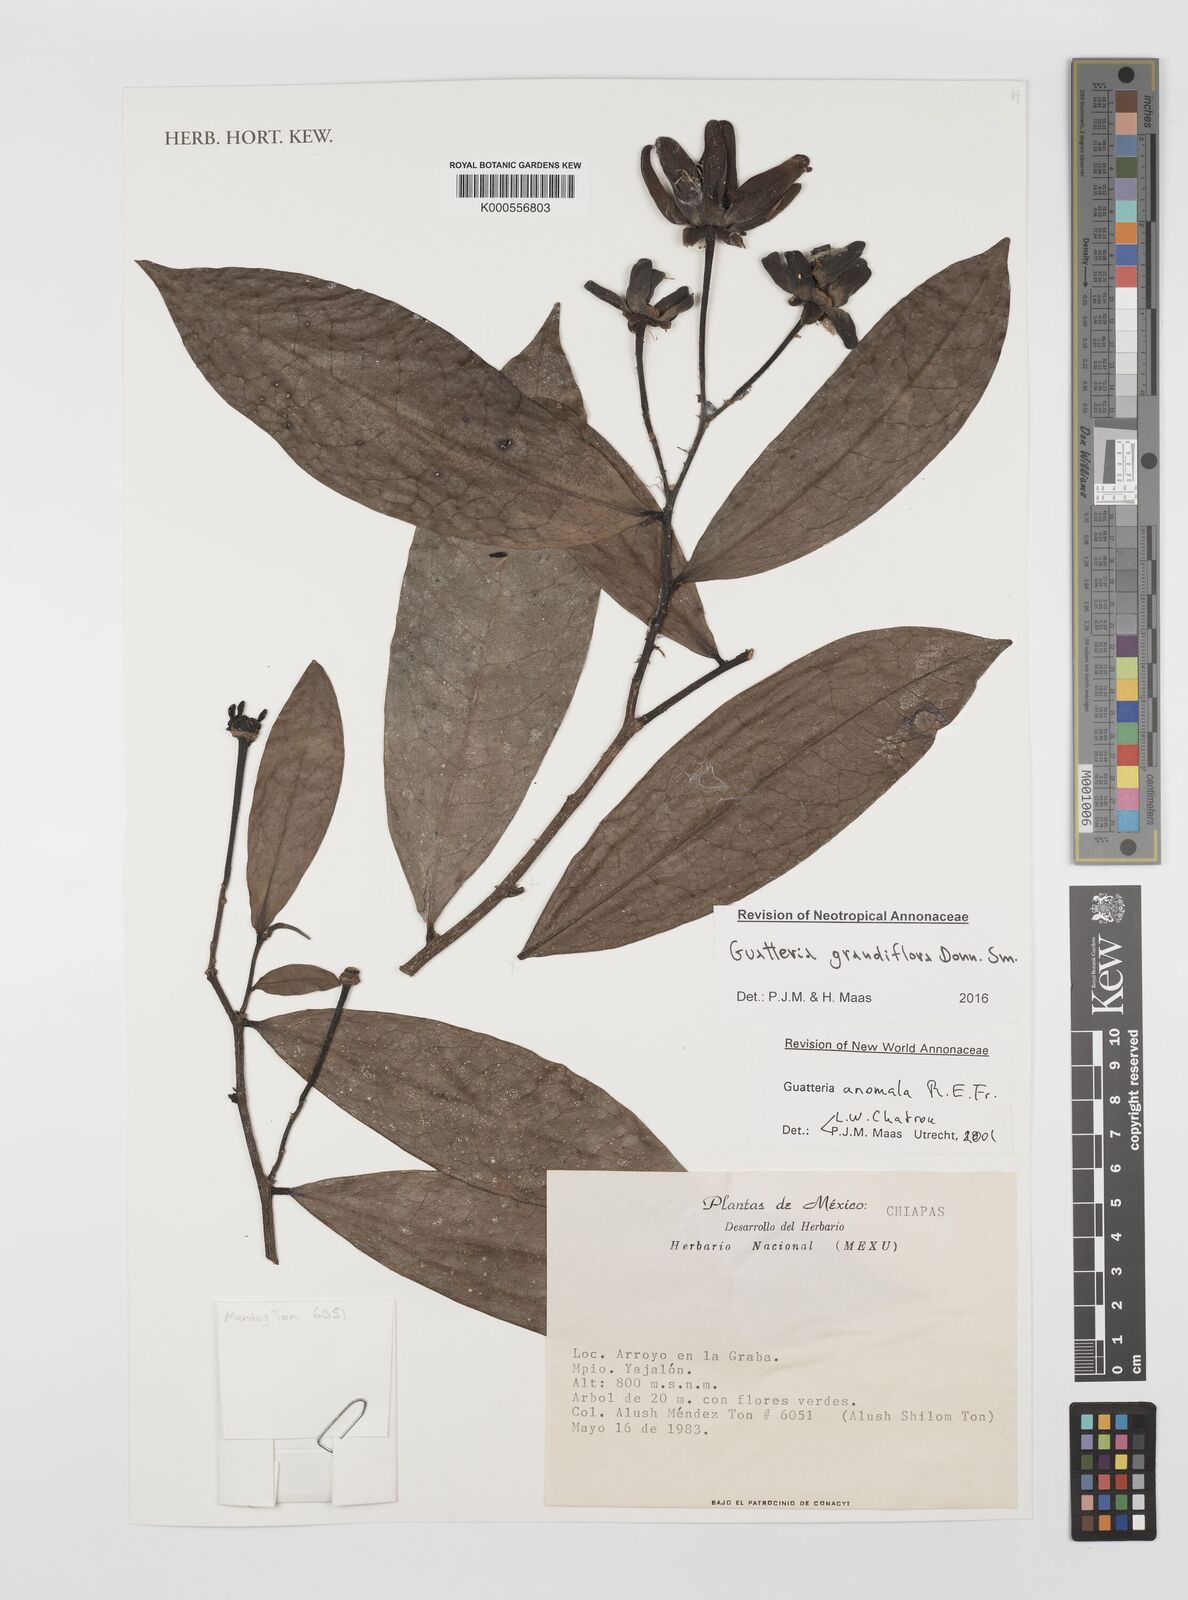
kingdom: Plantae
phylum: Tracheophyta
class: Magnoliopsida
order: Magnoliales
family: Annonaceae
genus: Guatteria
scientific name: Guatteria grandiflora
